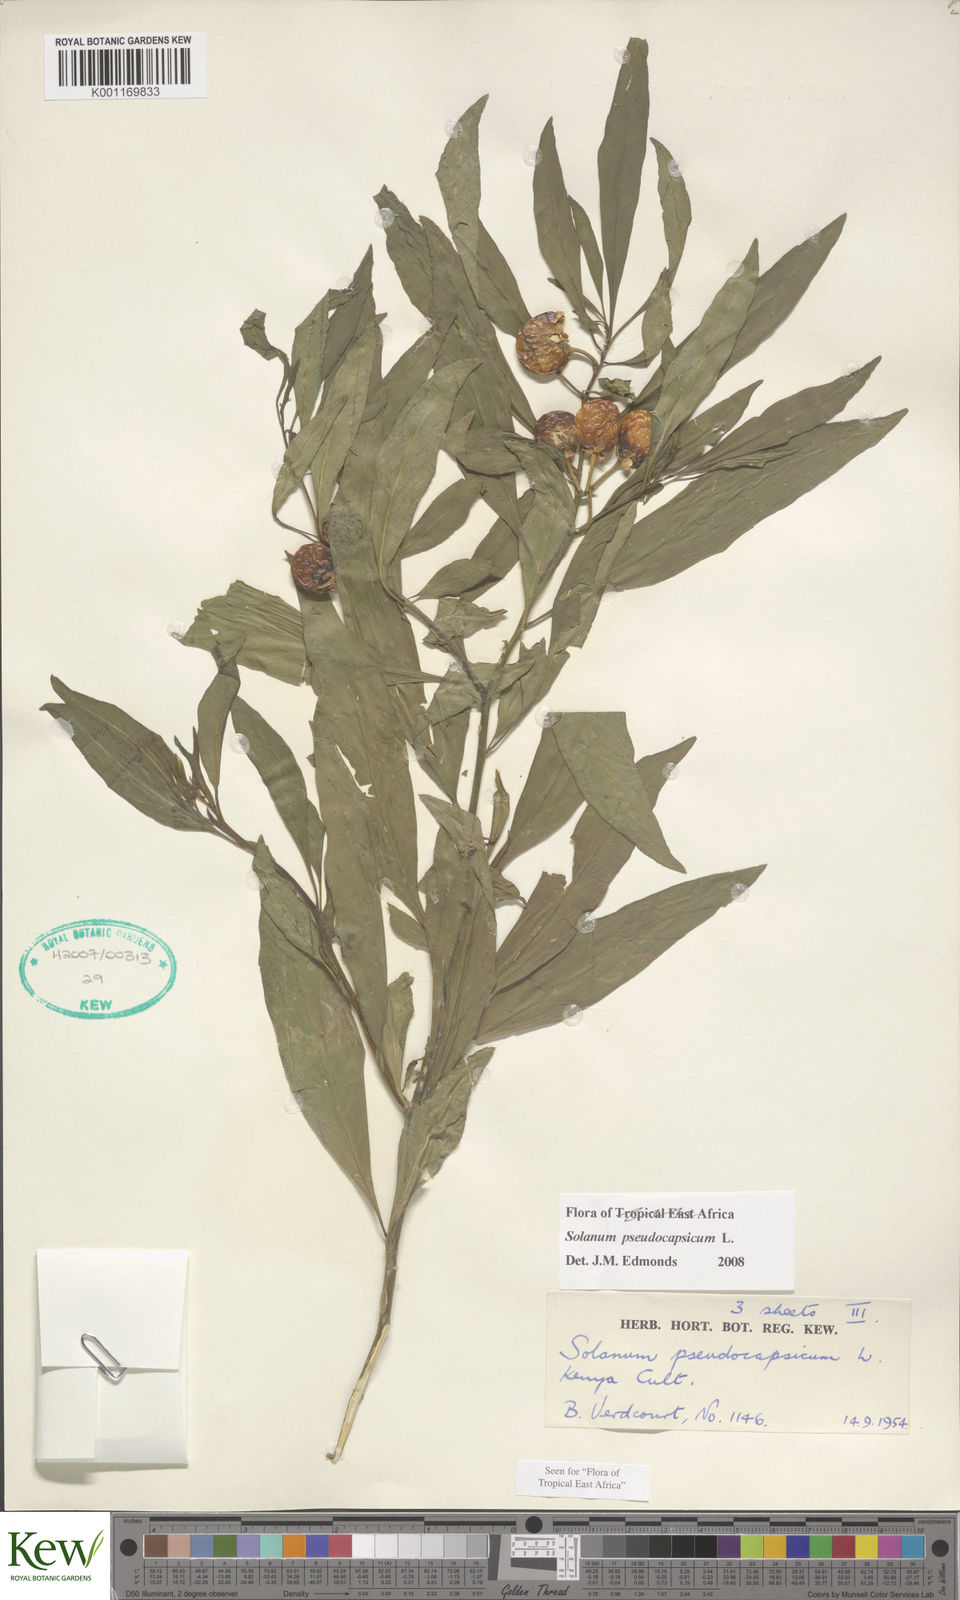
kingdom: Plantae
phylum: Tracheophyta
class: Magnoliopsida
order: Solanales
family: Solanaceae
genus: Solanum
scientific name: Solanum
